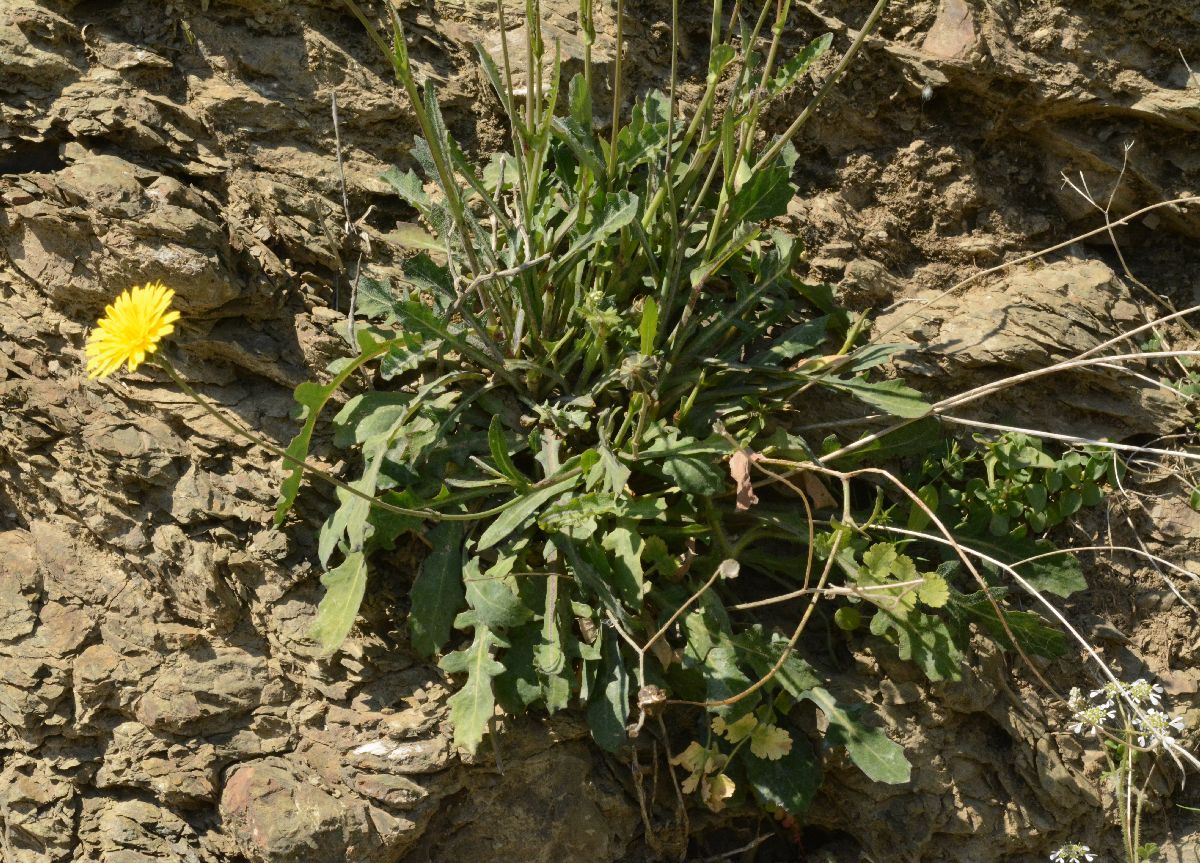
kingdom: Plantae
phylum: Tracheophyta
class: Magnoliopsida
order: Asterales
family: Asteraceae
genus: Reichardia
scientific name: Reichardia picroides
